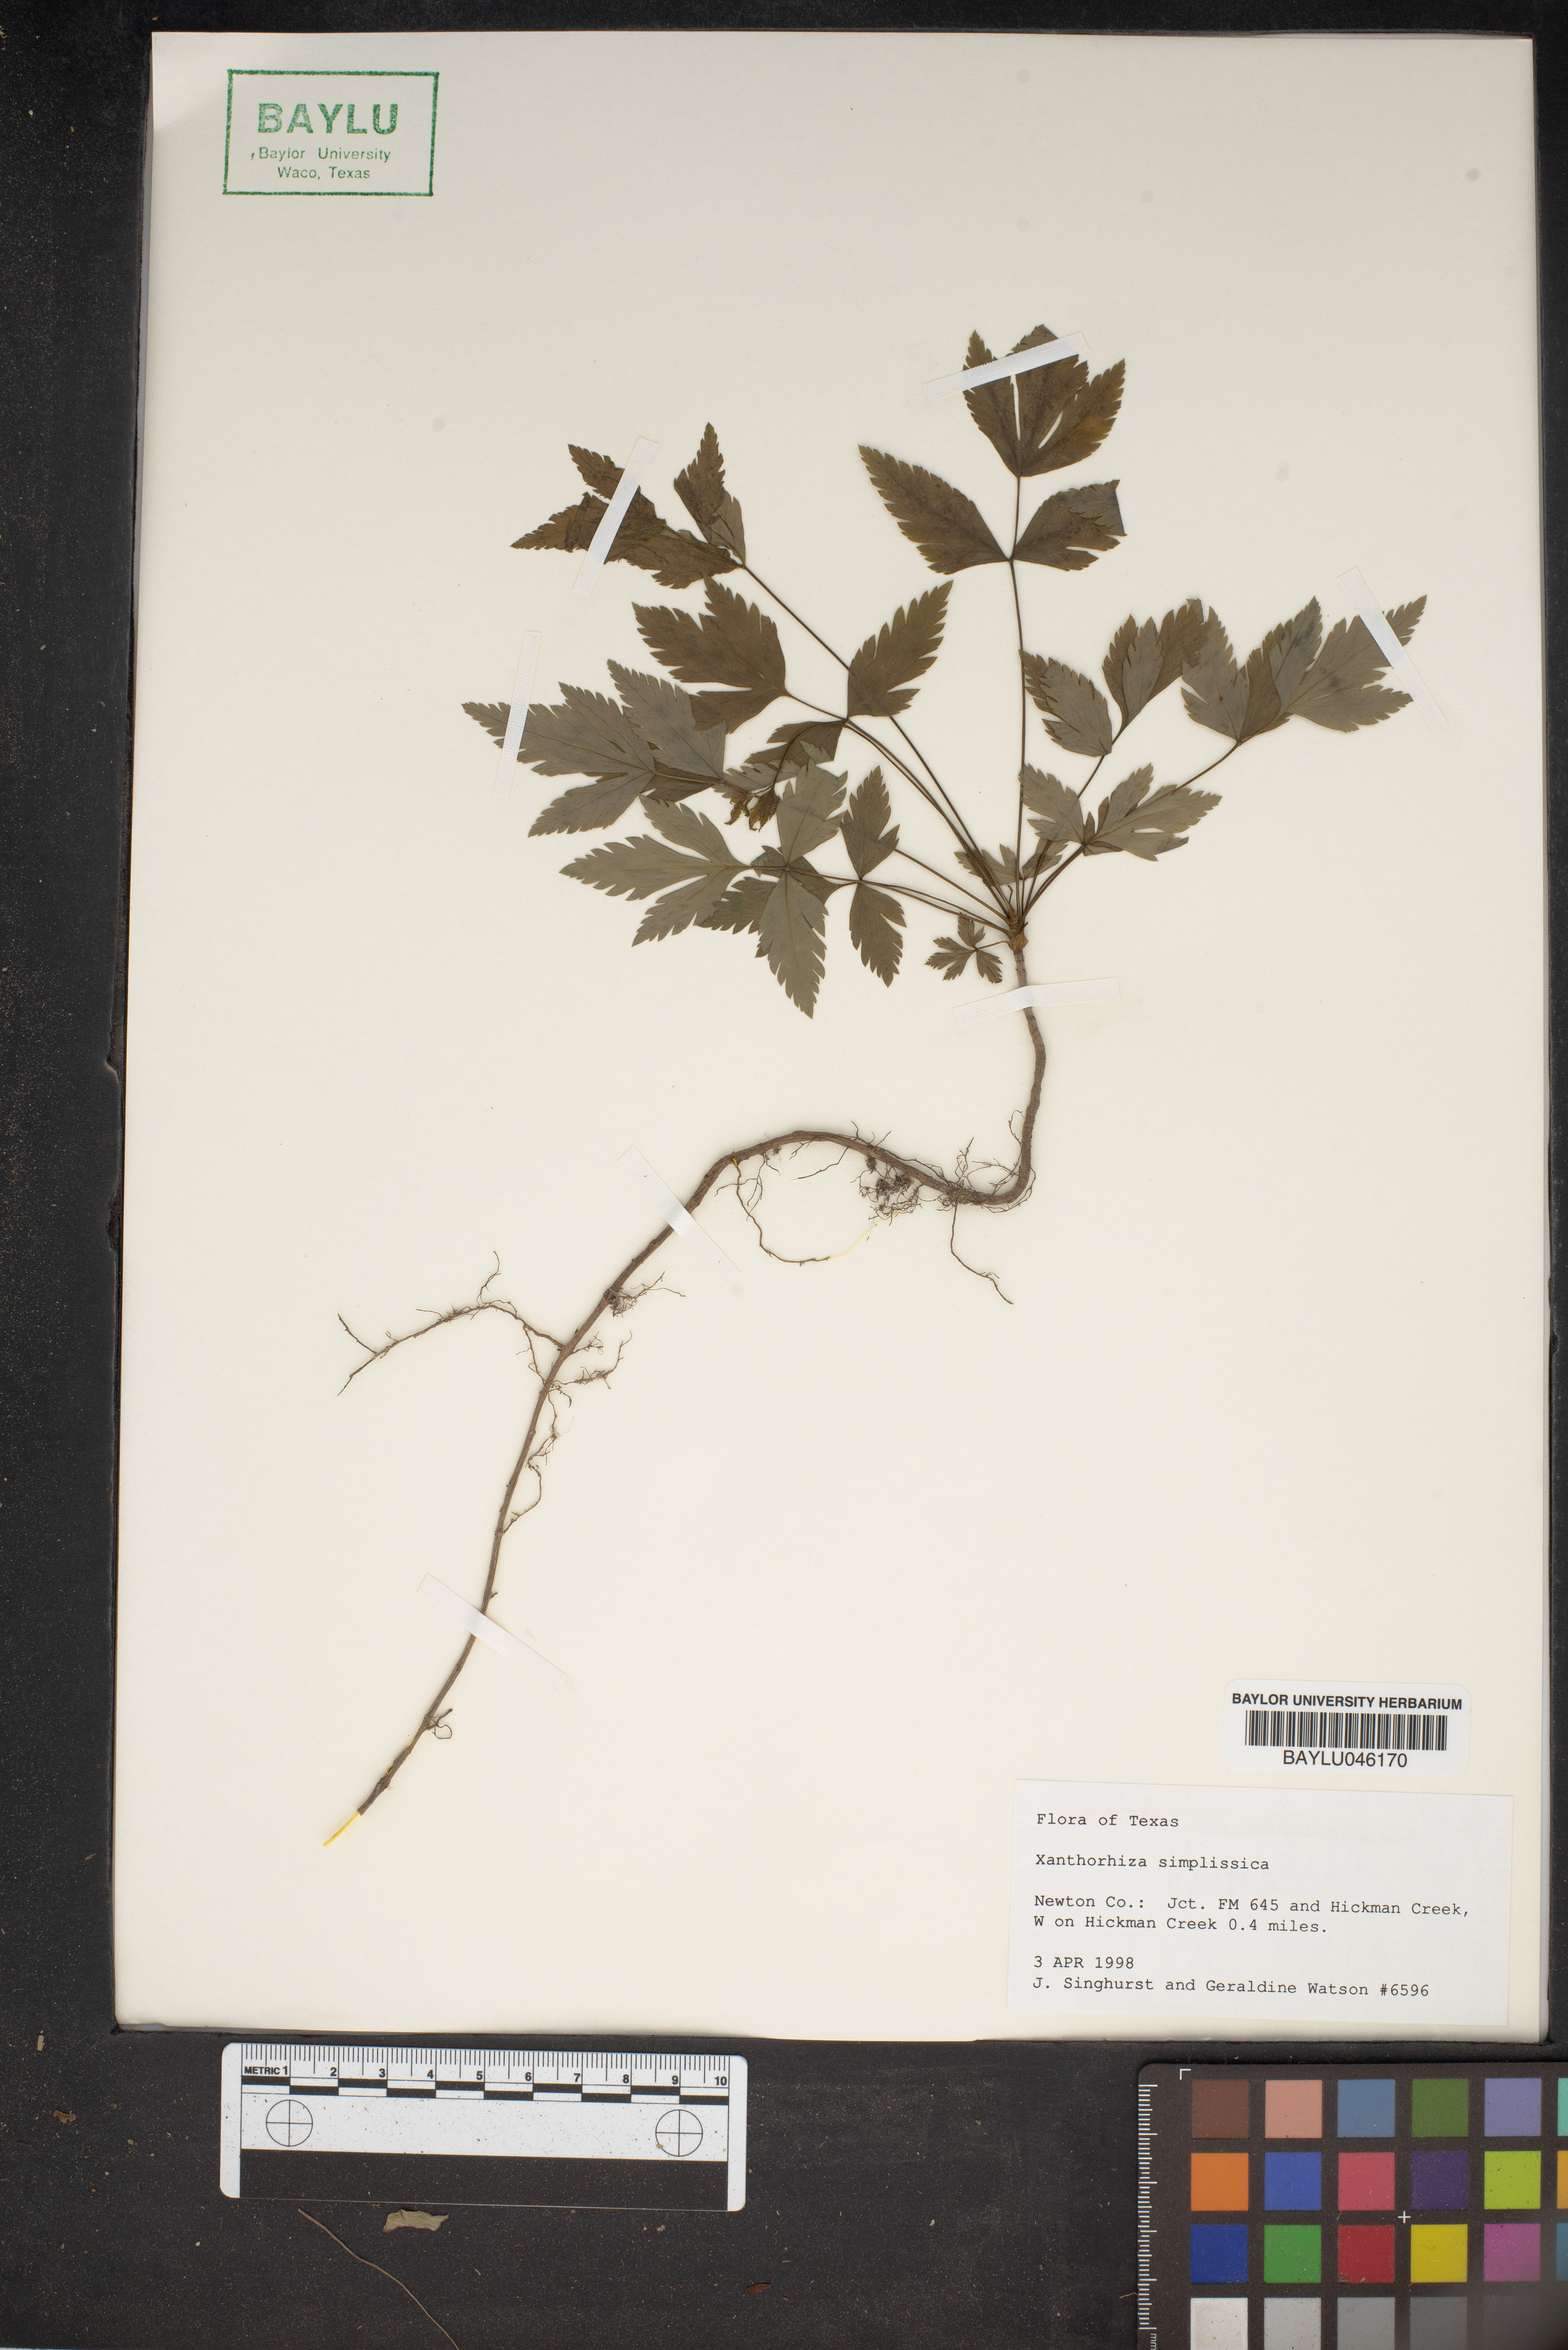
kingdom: Plantae
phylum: Tracheophyta
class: Magnoliopsida
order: Ranunculales
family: Ranunculaceae
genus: Xanthorhiza
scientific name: Xanthorhiza simplicissima
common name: Yellowroot
